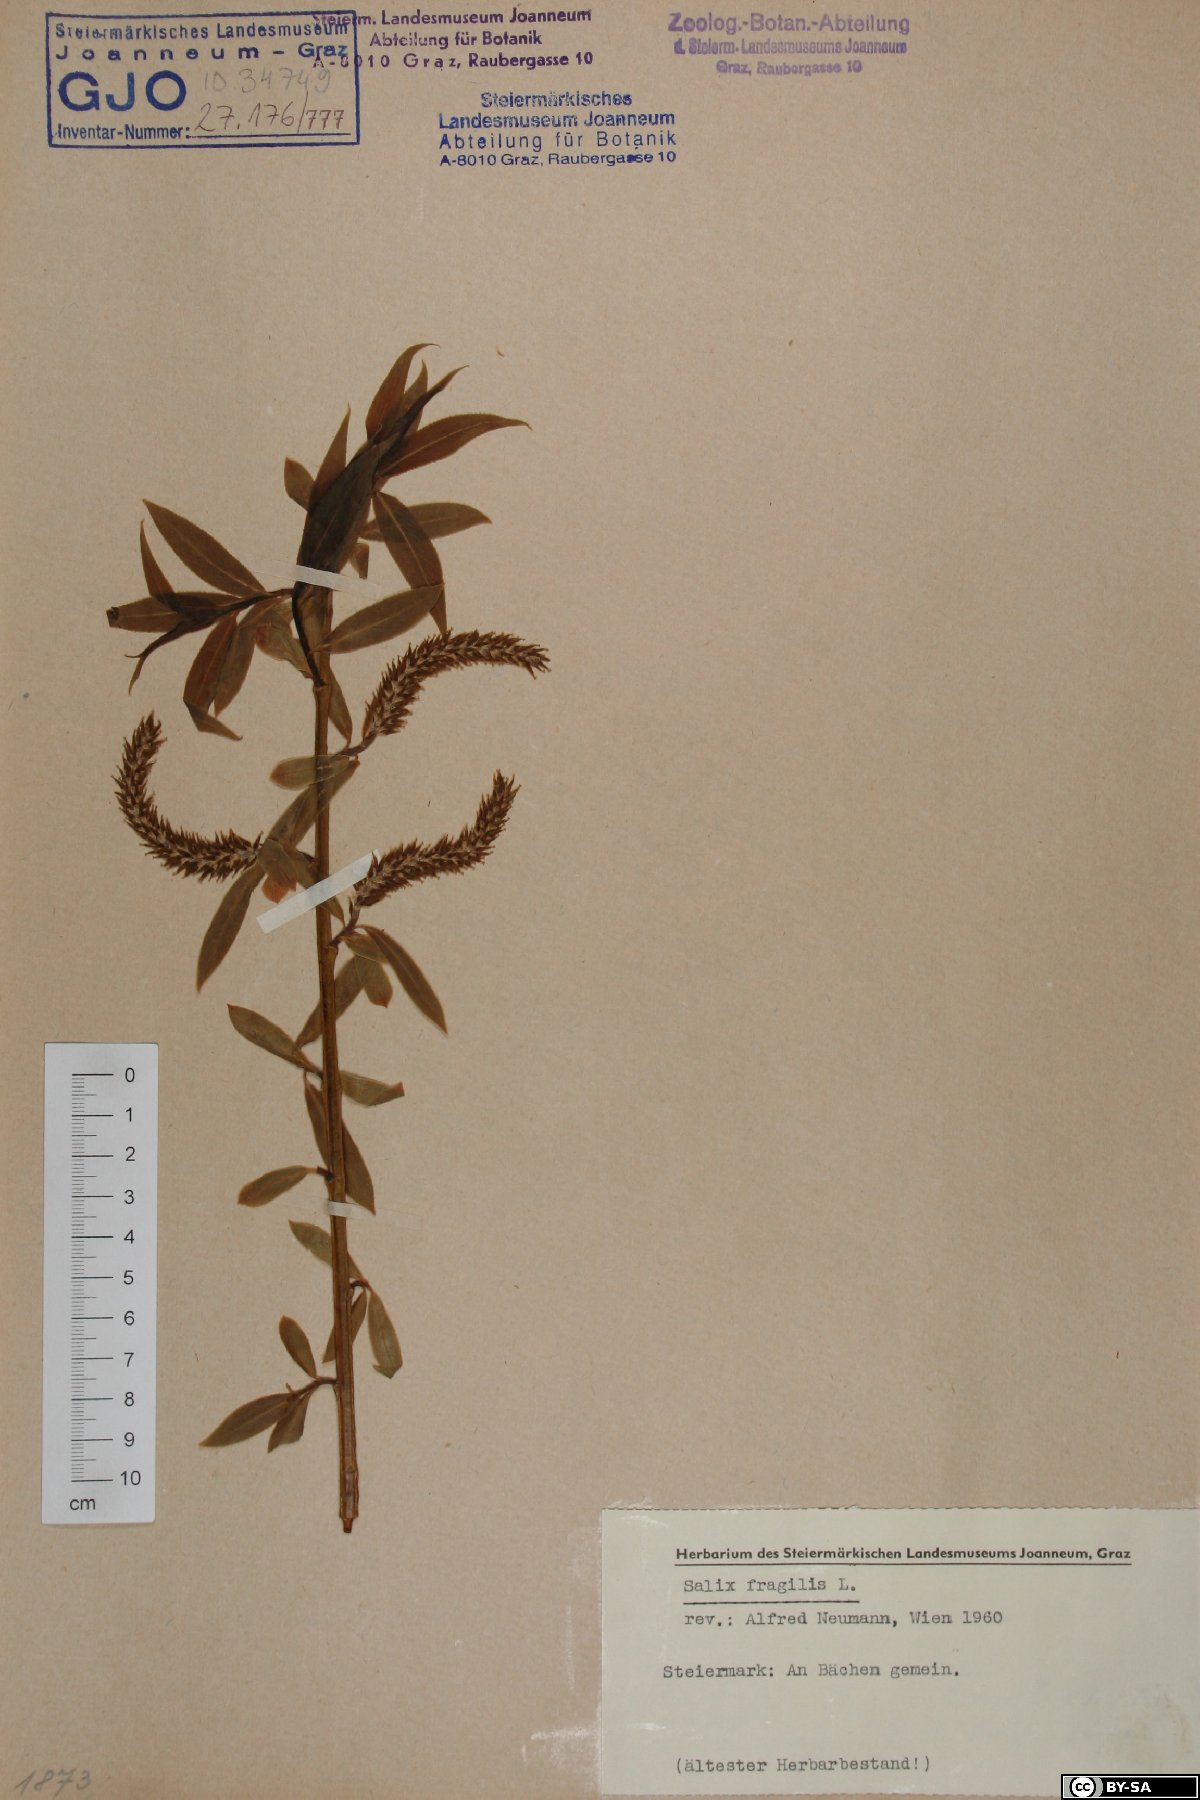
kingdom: Plantae
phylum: Tracheophyta
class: Magnoliopsida
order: Malpighiales
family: Salicaceae
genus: Salix
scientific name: Salix fragilis
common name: Crack willow
